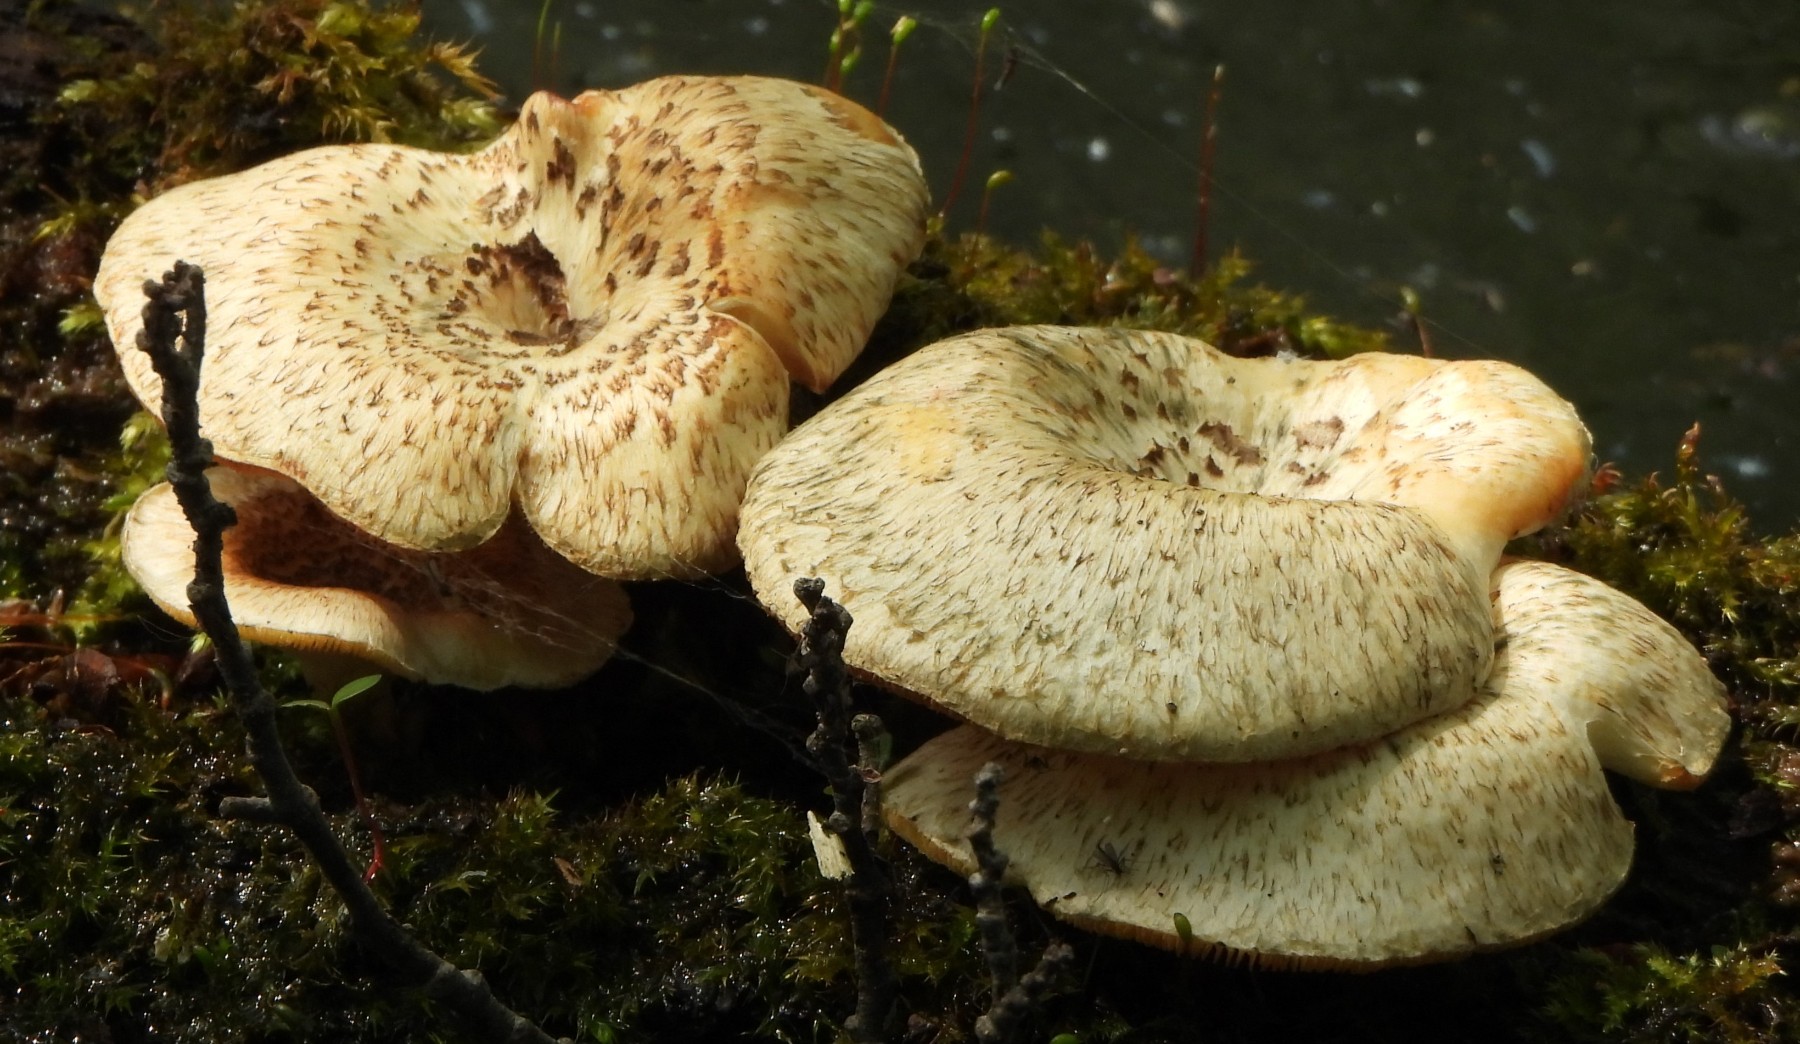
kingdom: Fungi
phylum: Basidiomycota
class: Agaricomycetes
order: Polyporales
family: Polyporaceae
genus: Lentinus
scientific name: Lentinus tigrinus
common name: tigerhat
